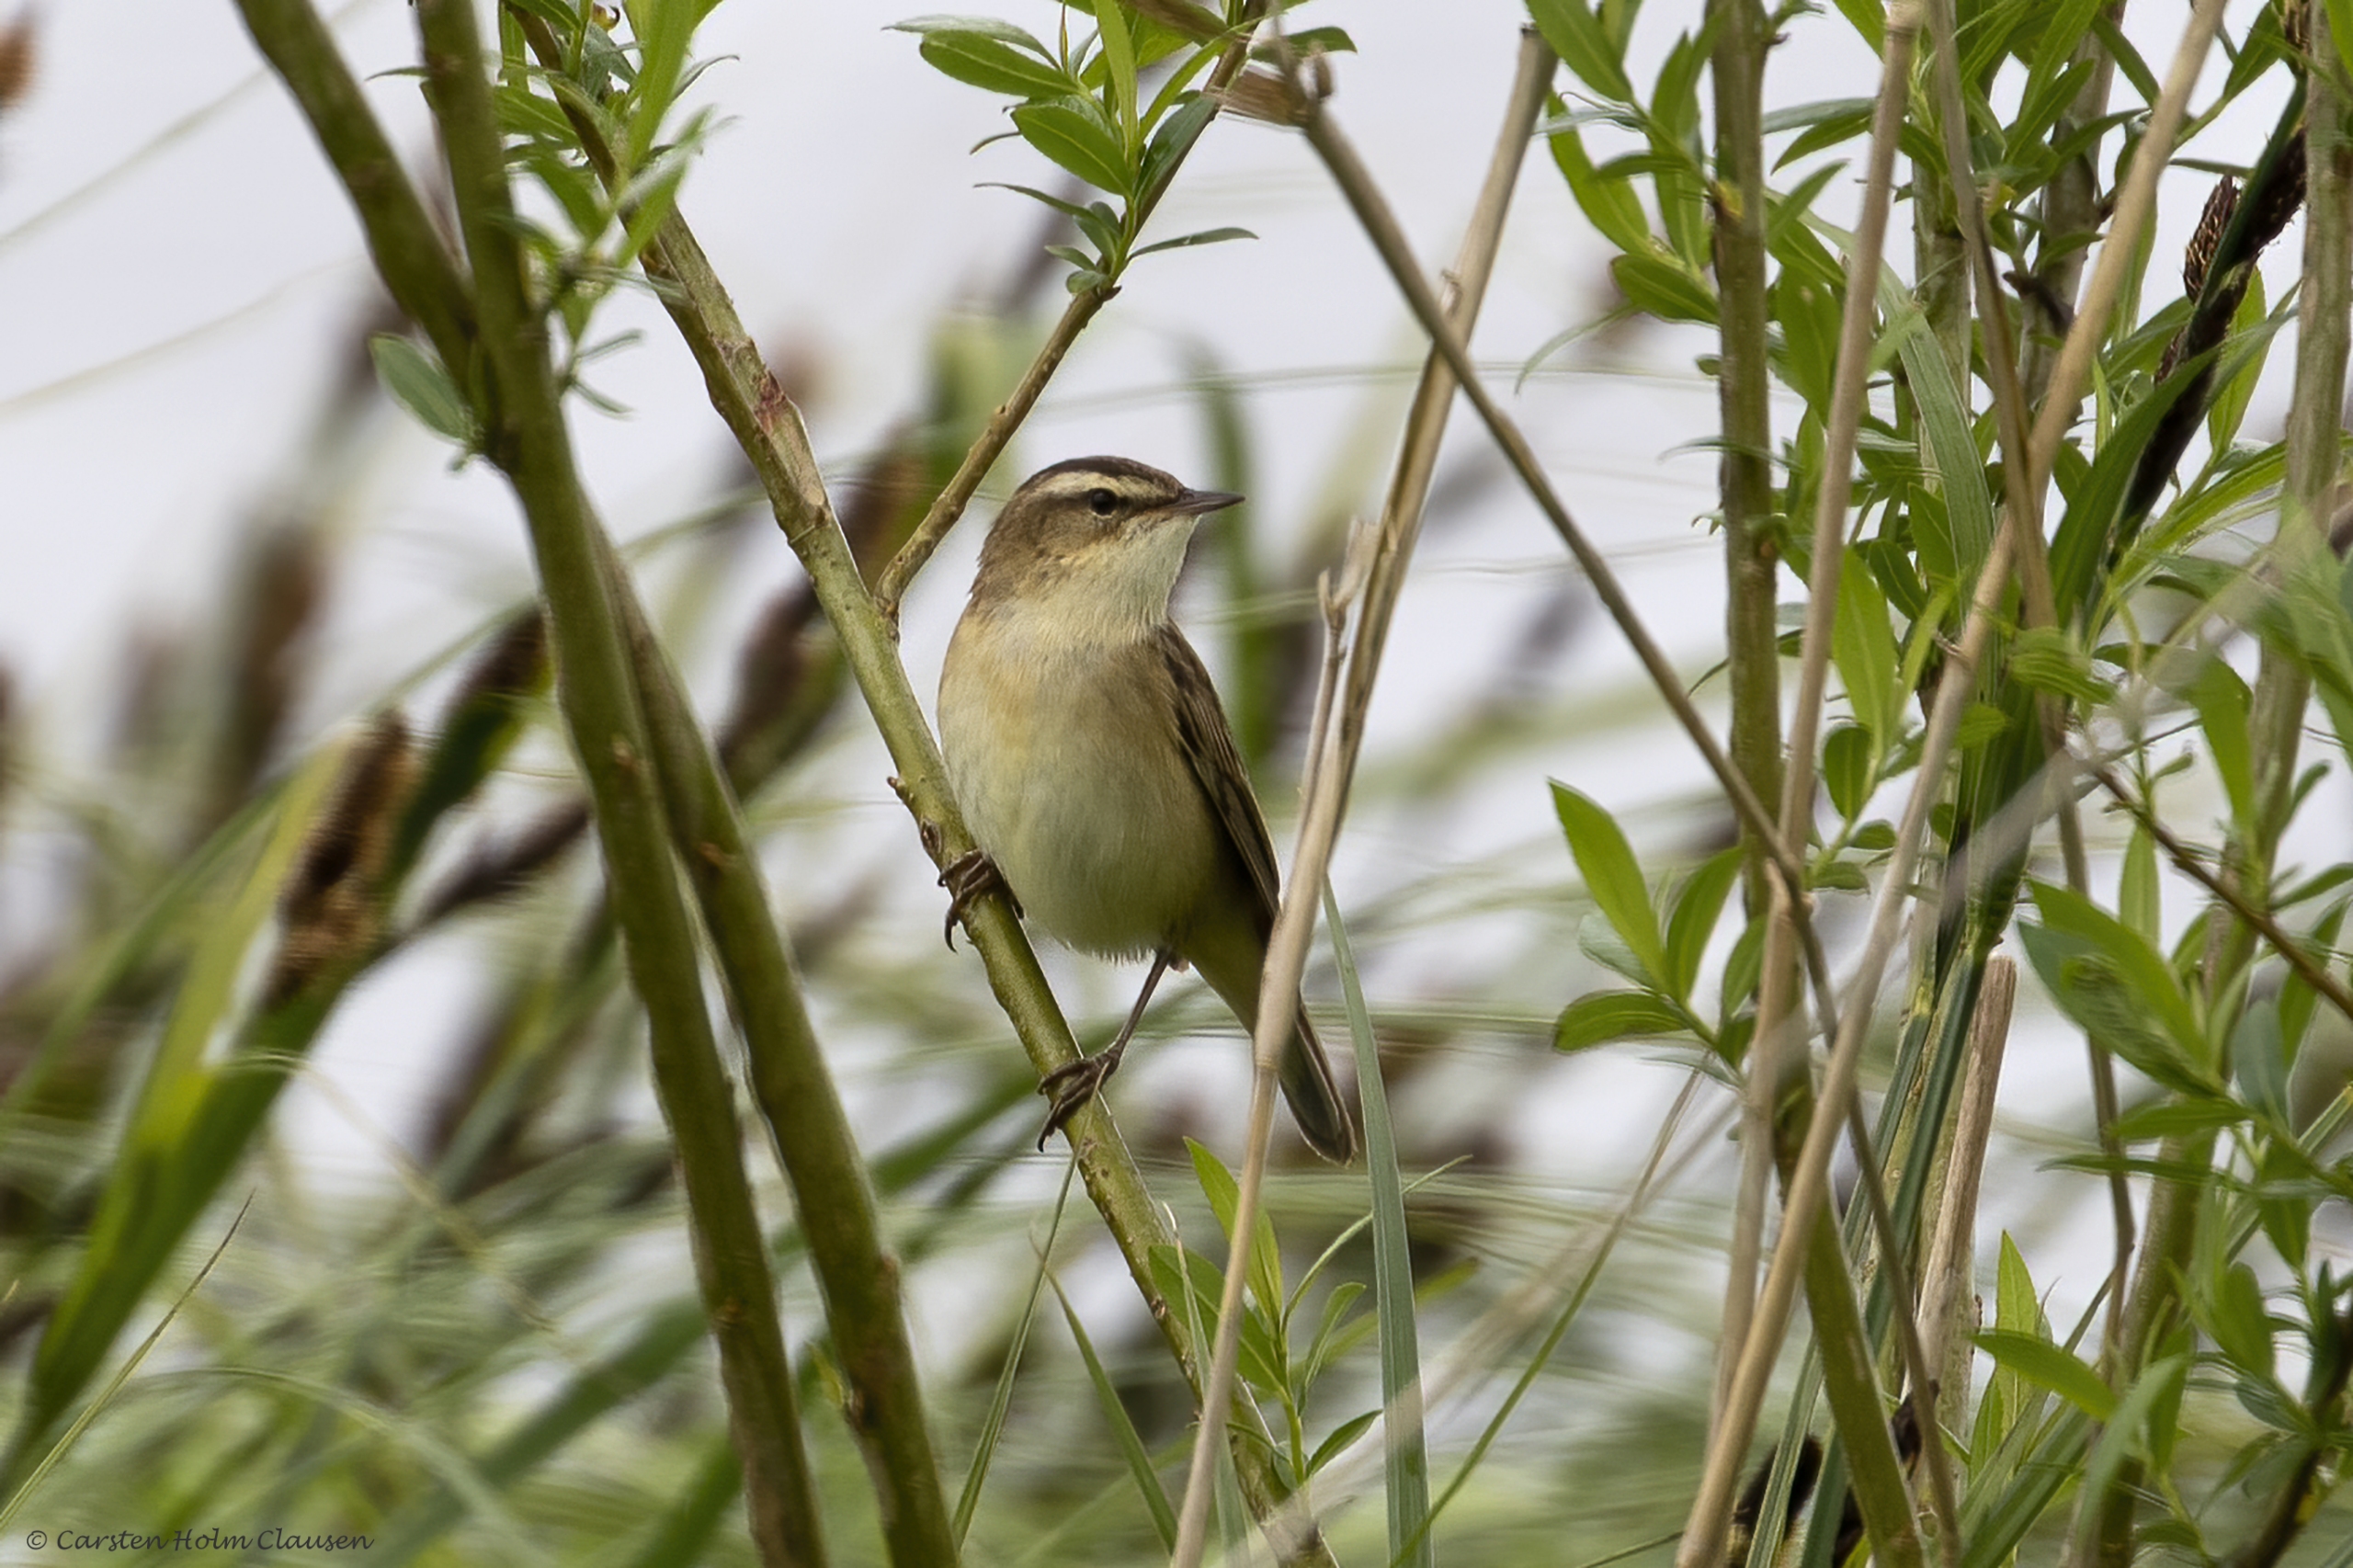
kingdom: Animalia
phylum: Chordata
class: Aves
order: Passeriformes
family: Acrocephalidae
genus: Acrocephalus
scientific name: Acrocephalus schoenobaenus
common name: Sivsanger
